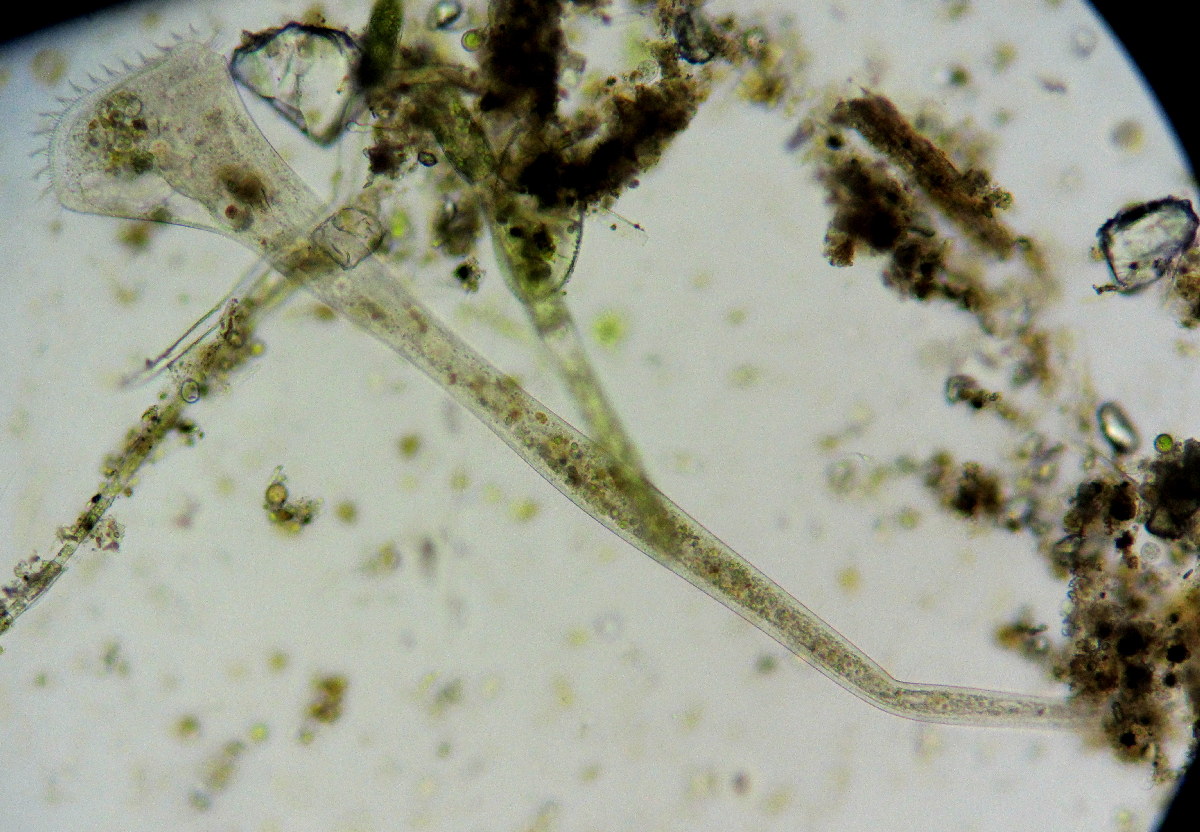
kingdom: Chromista
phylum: Ciliophora
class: Heterotrichea
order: Heterotrichida
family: Stentoridae
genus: Stentor
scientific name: Stentor roeselii
